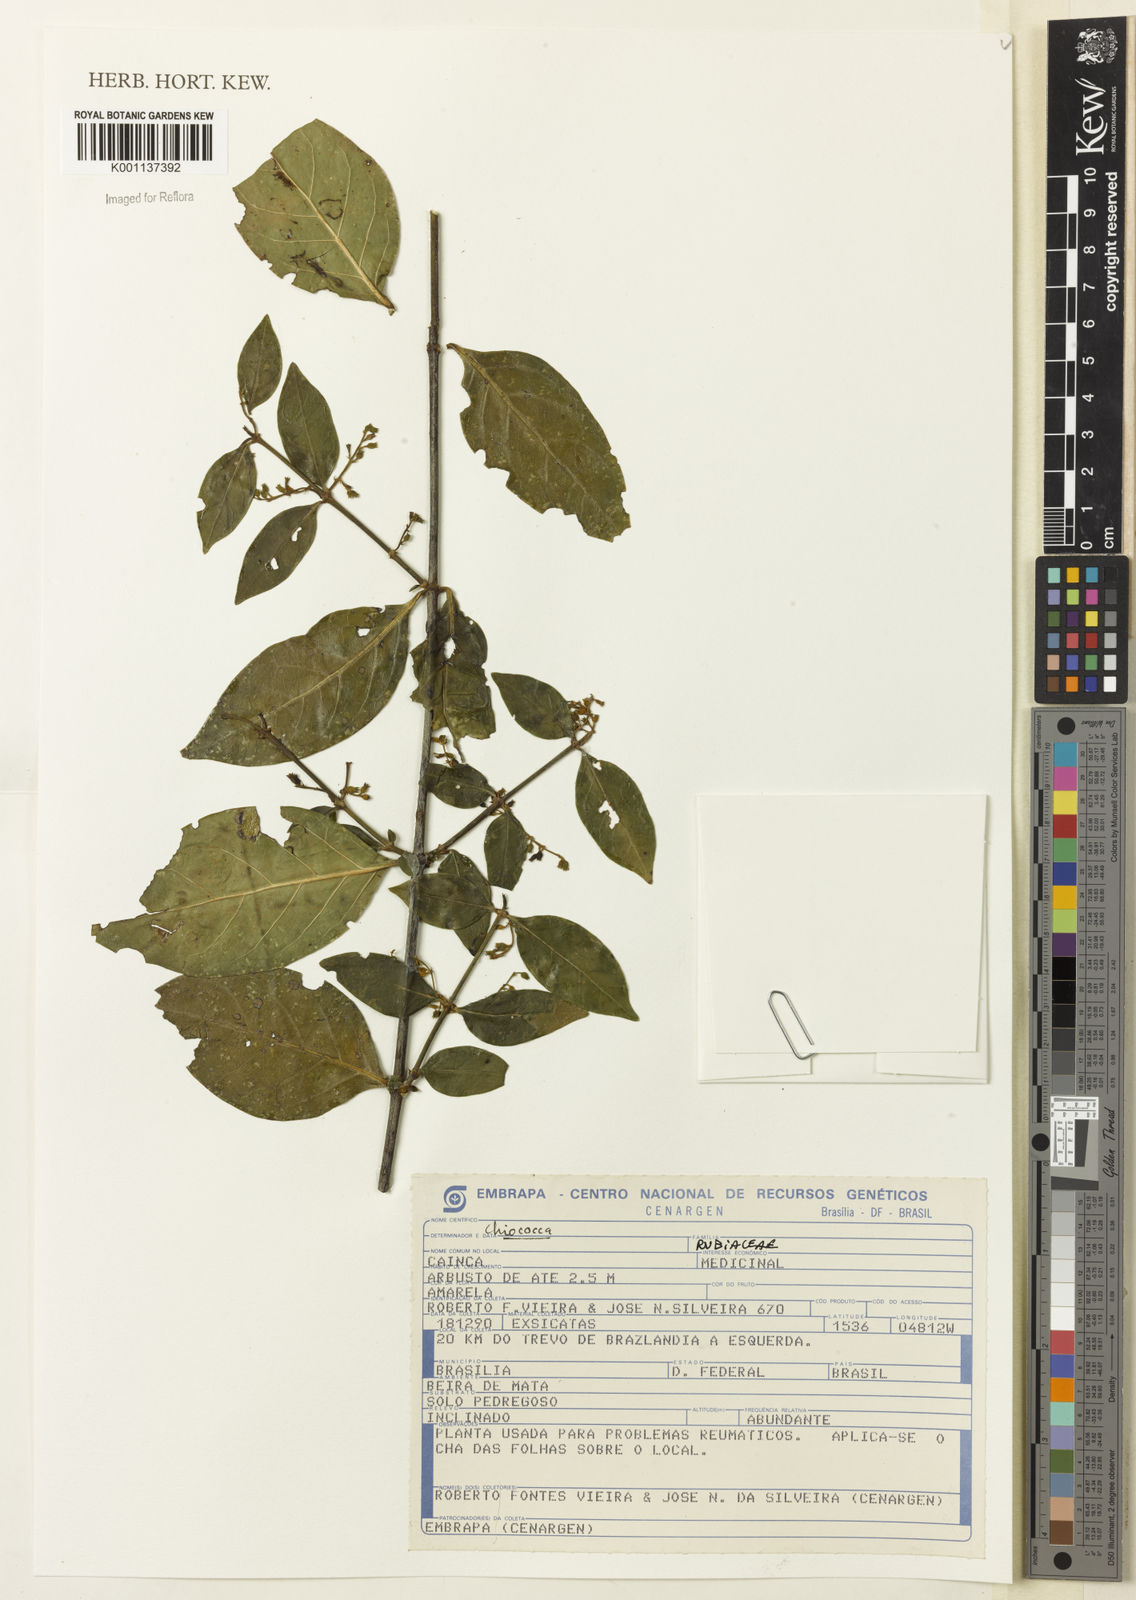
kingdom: Plantae
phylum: Tracheophyta
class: Magnoliopsida
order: Gentianales
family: Rubiaceae
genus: Chiococca
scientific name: Chiococca
